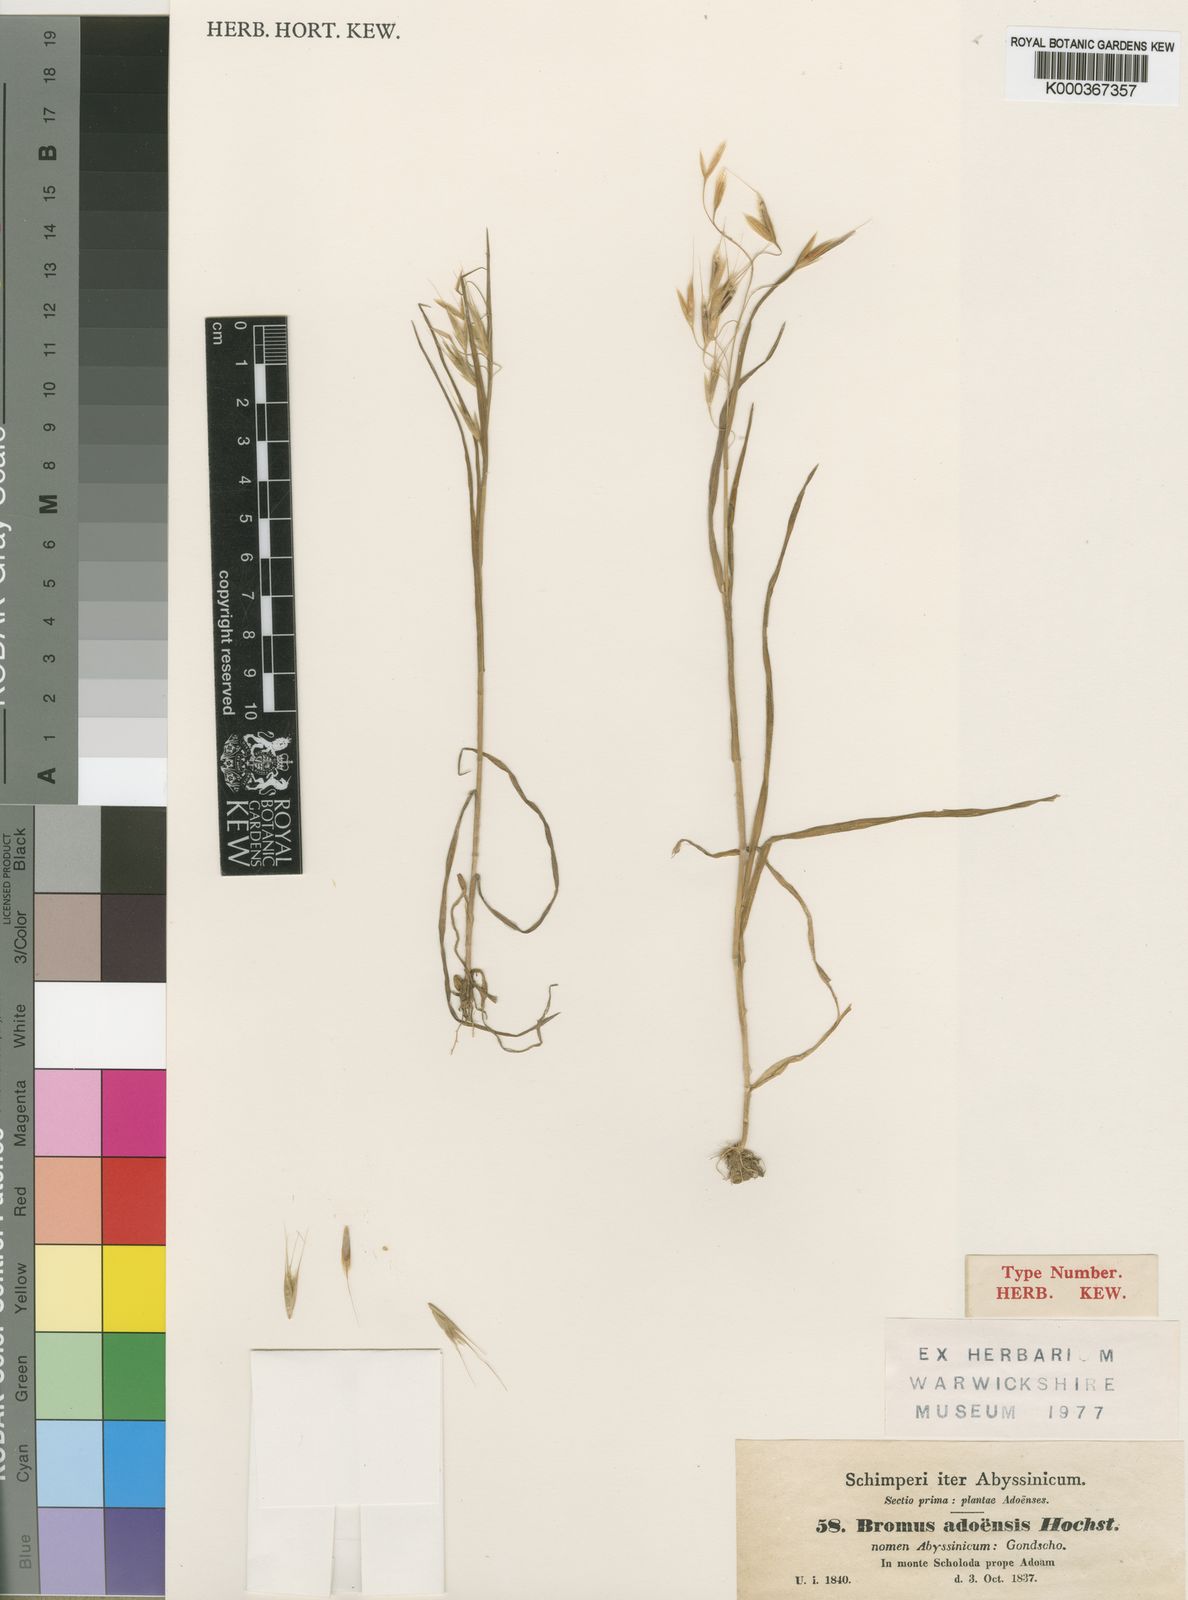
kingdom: Plantae
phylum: Tracheophyta
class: Liliopsida
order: Poales
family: Poaceae
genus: Bromus
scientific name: Bromus pectinatus
